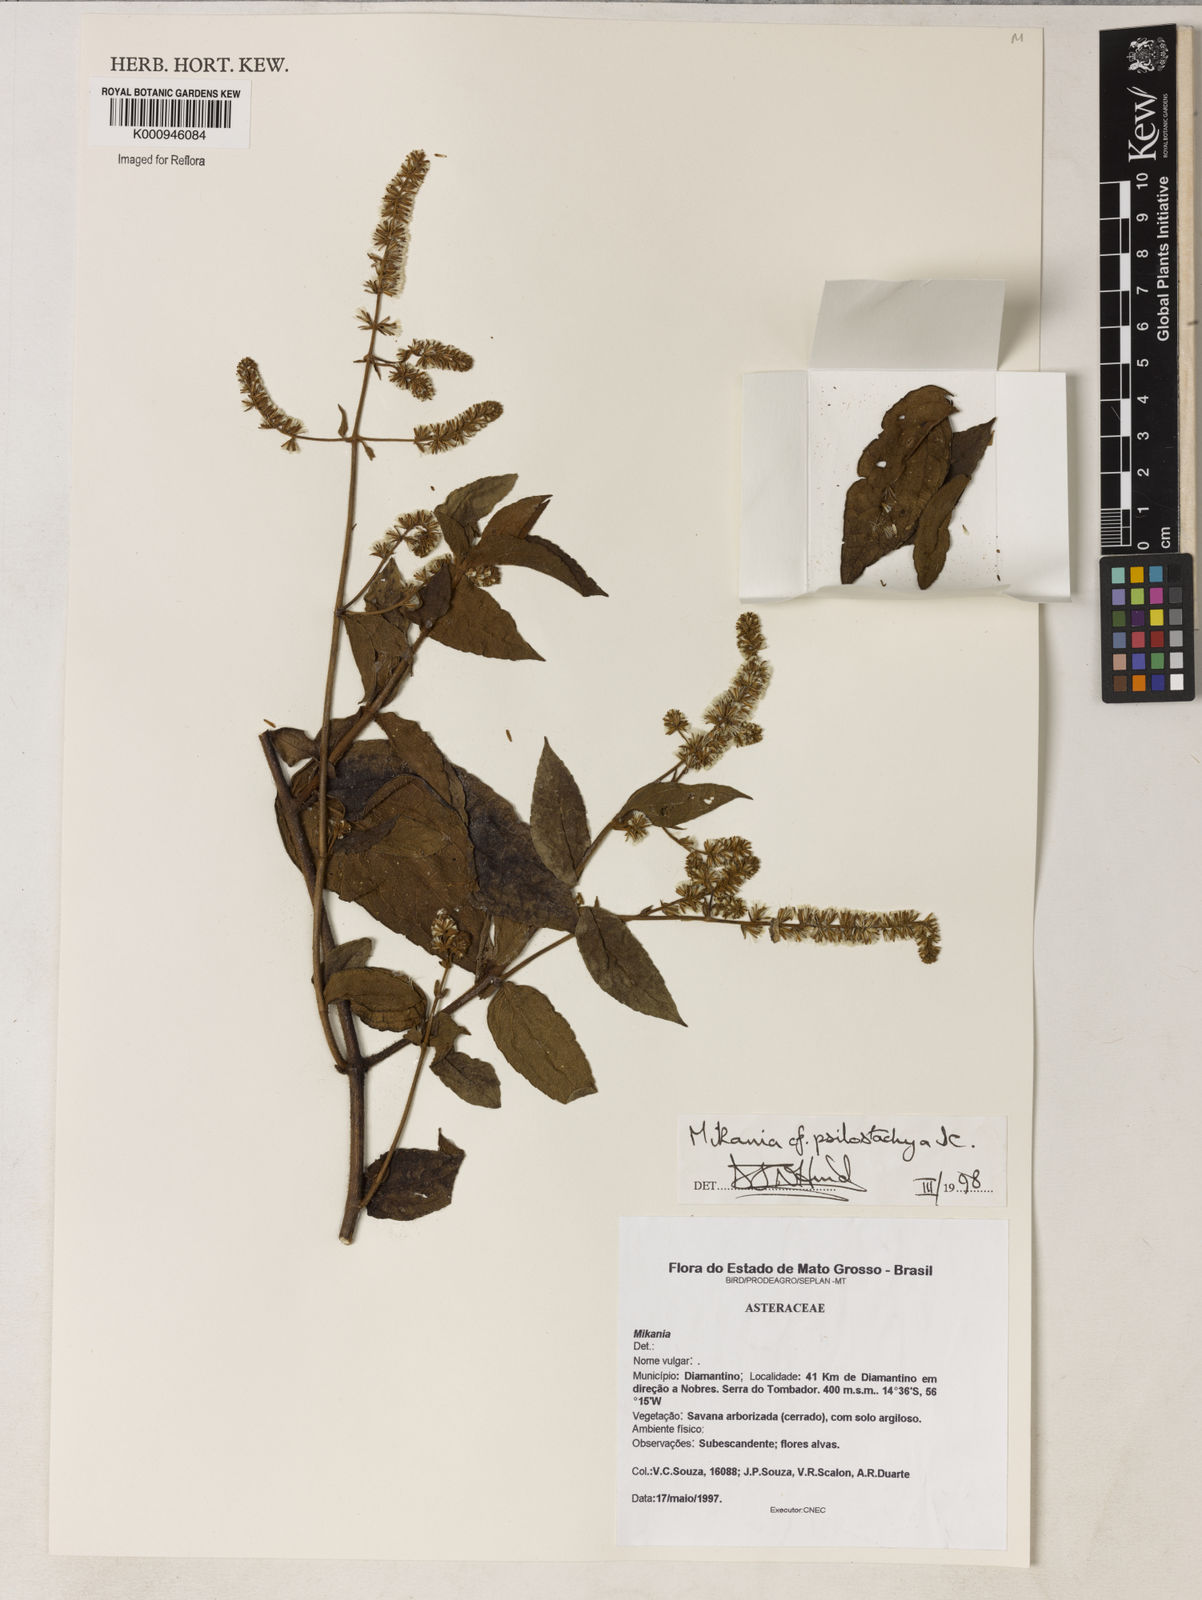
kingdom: Plantae
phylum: Tracheophyta
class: Magnoliopsida
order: Asterales
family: Asteraceae
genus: Mikania
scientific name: Mikania psilostachya
